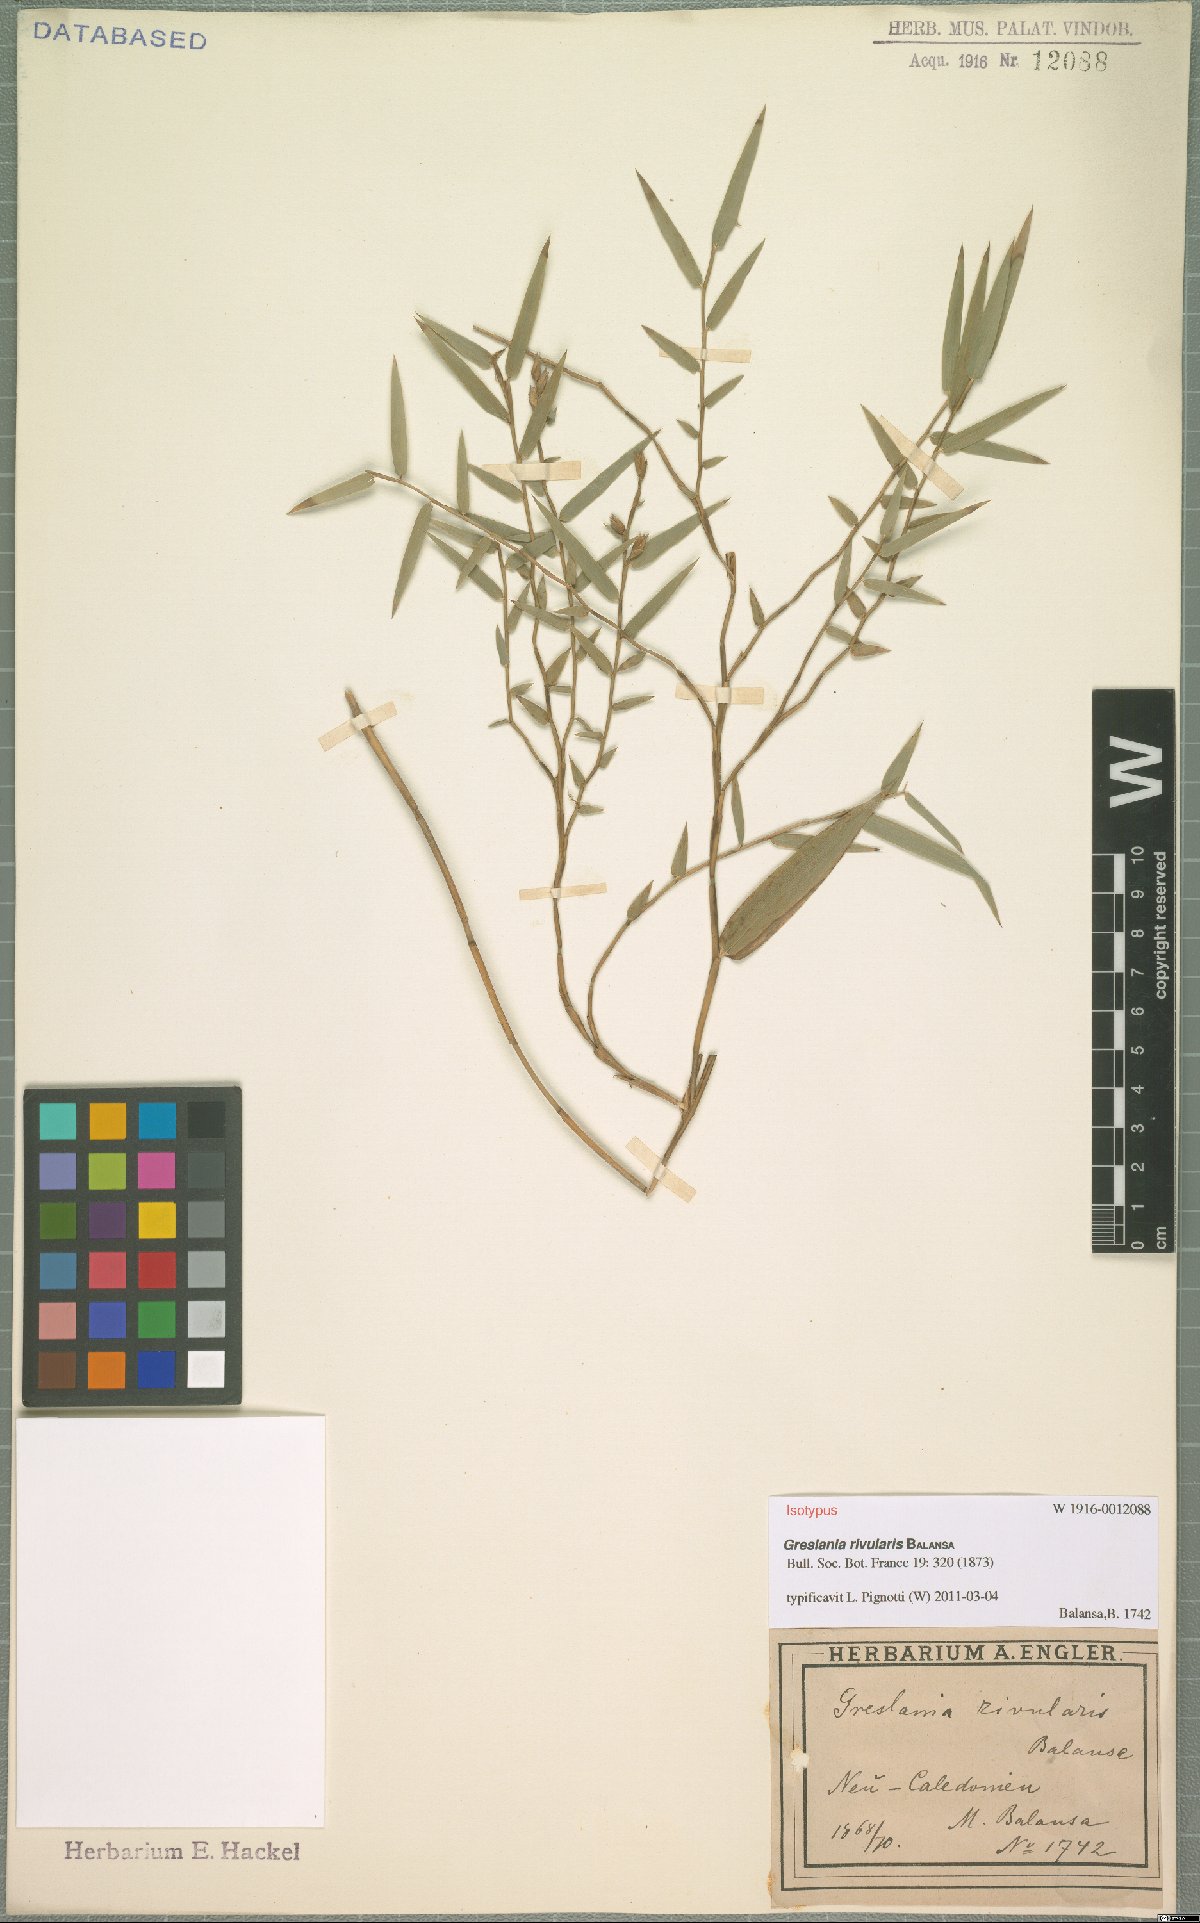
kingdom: Plantae
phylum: Tracheophyta
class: Liliopsida
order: Poales
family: Poaceae
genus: Greslania
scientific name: Greslania rivularis
